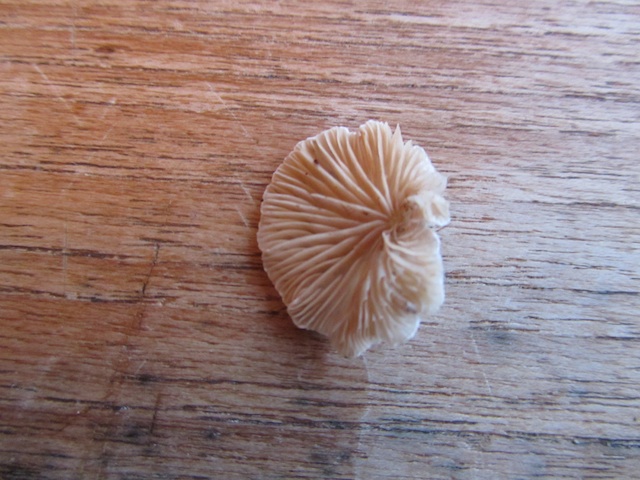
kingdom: Fungi
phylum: Basidiomycota
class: Agaricomycetes
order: Agaricales
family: Crepidotaceae
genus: Crepidotus
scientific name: Crepidotus cesatii
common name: almindelig muslingesvamp
